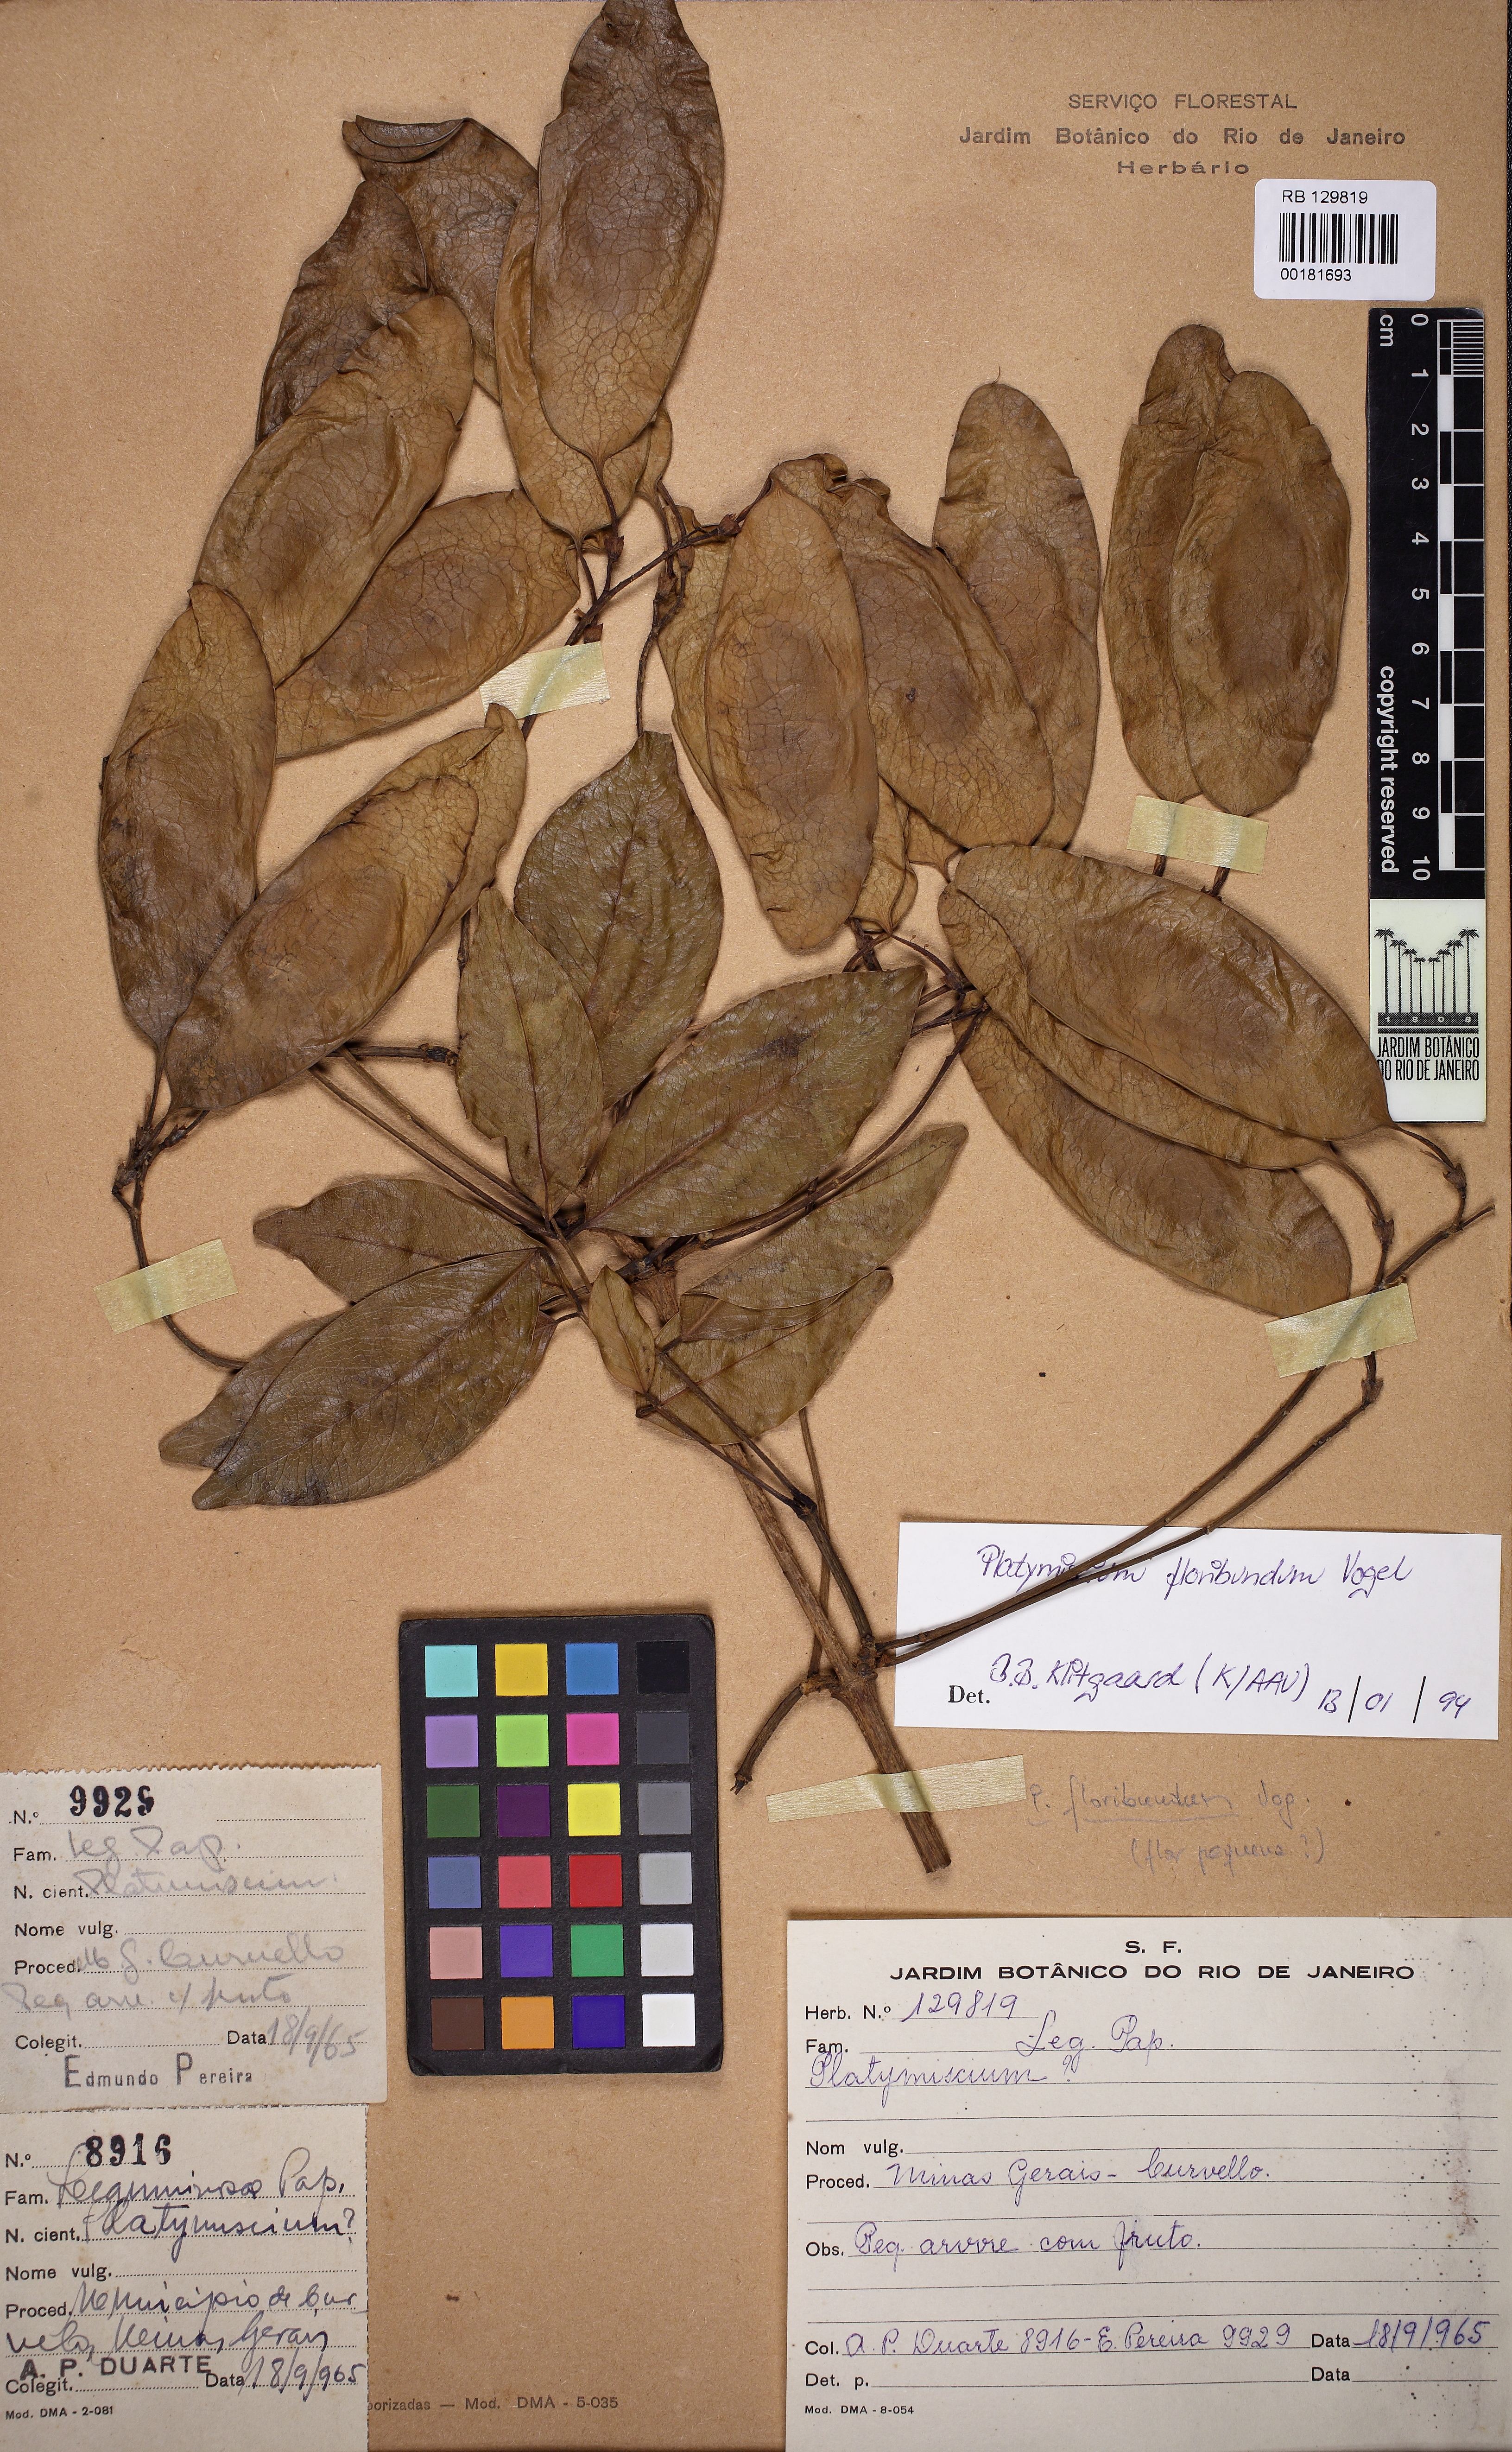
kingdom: Plantae
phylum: Tracheophyta
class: Magnoliopsida
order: Fabales
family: Fabaceae
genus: Platymiscium
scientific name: Platymiscium floribundum
